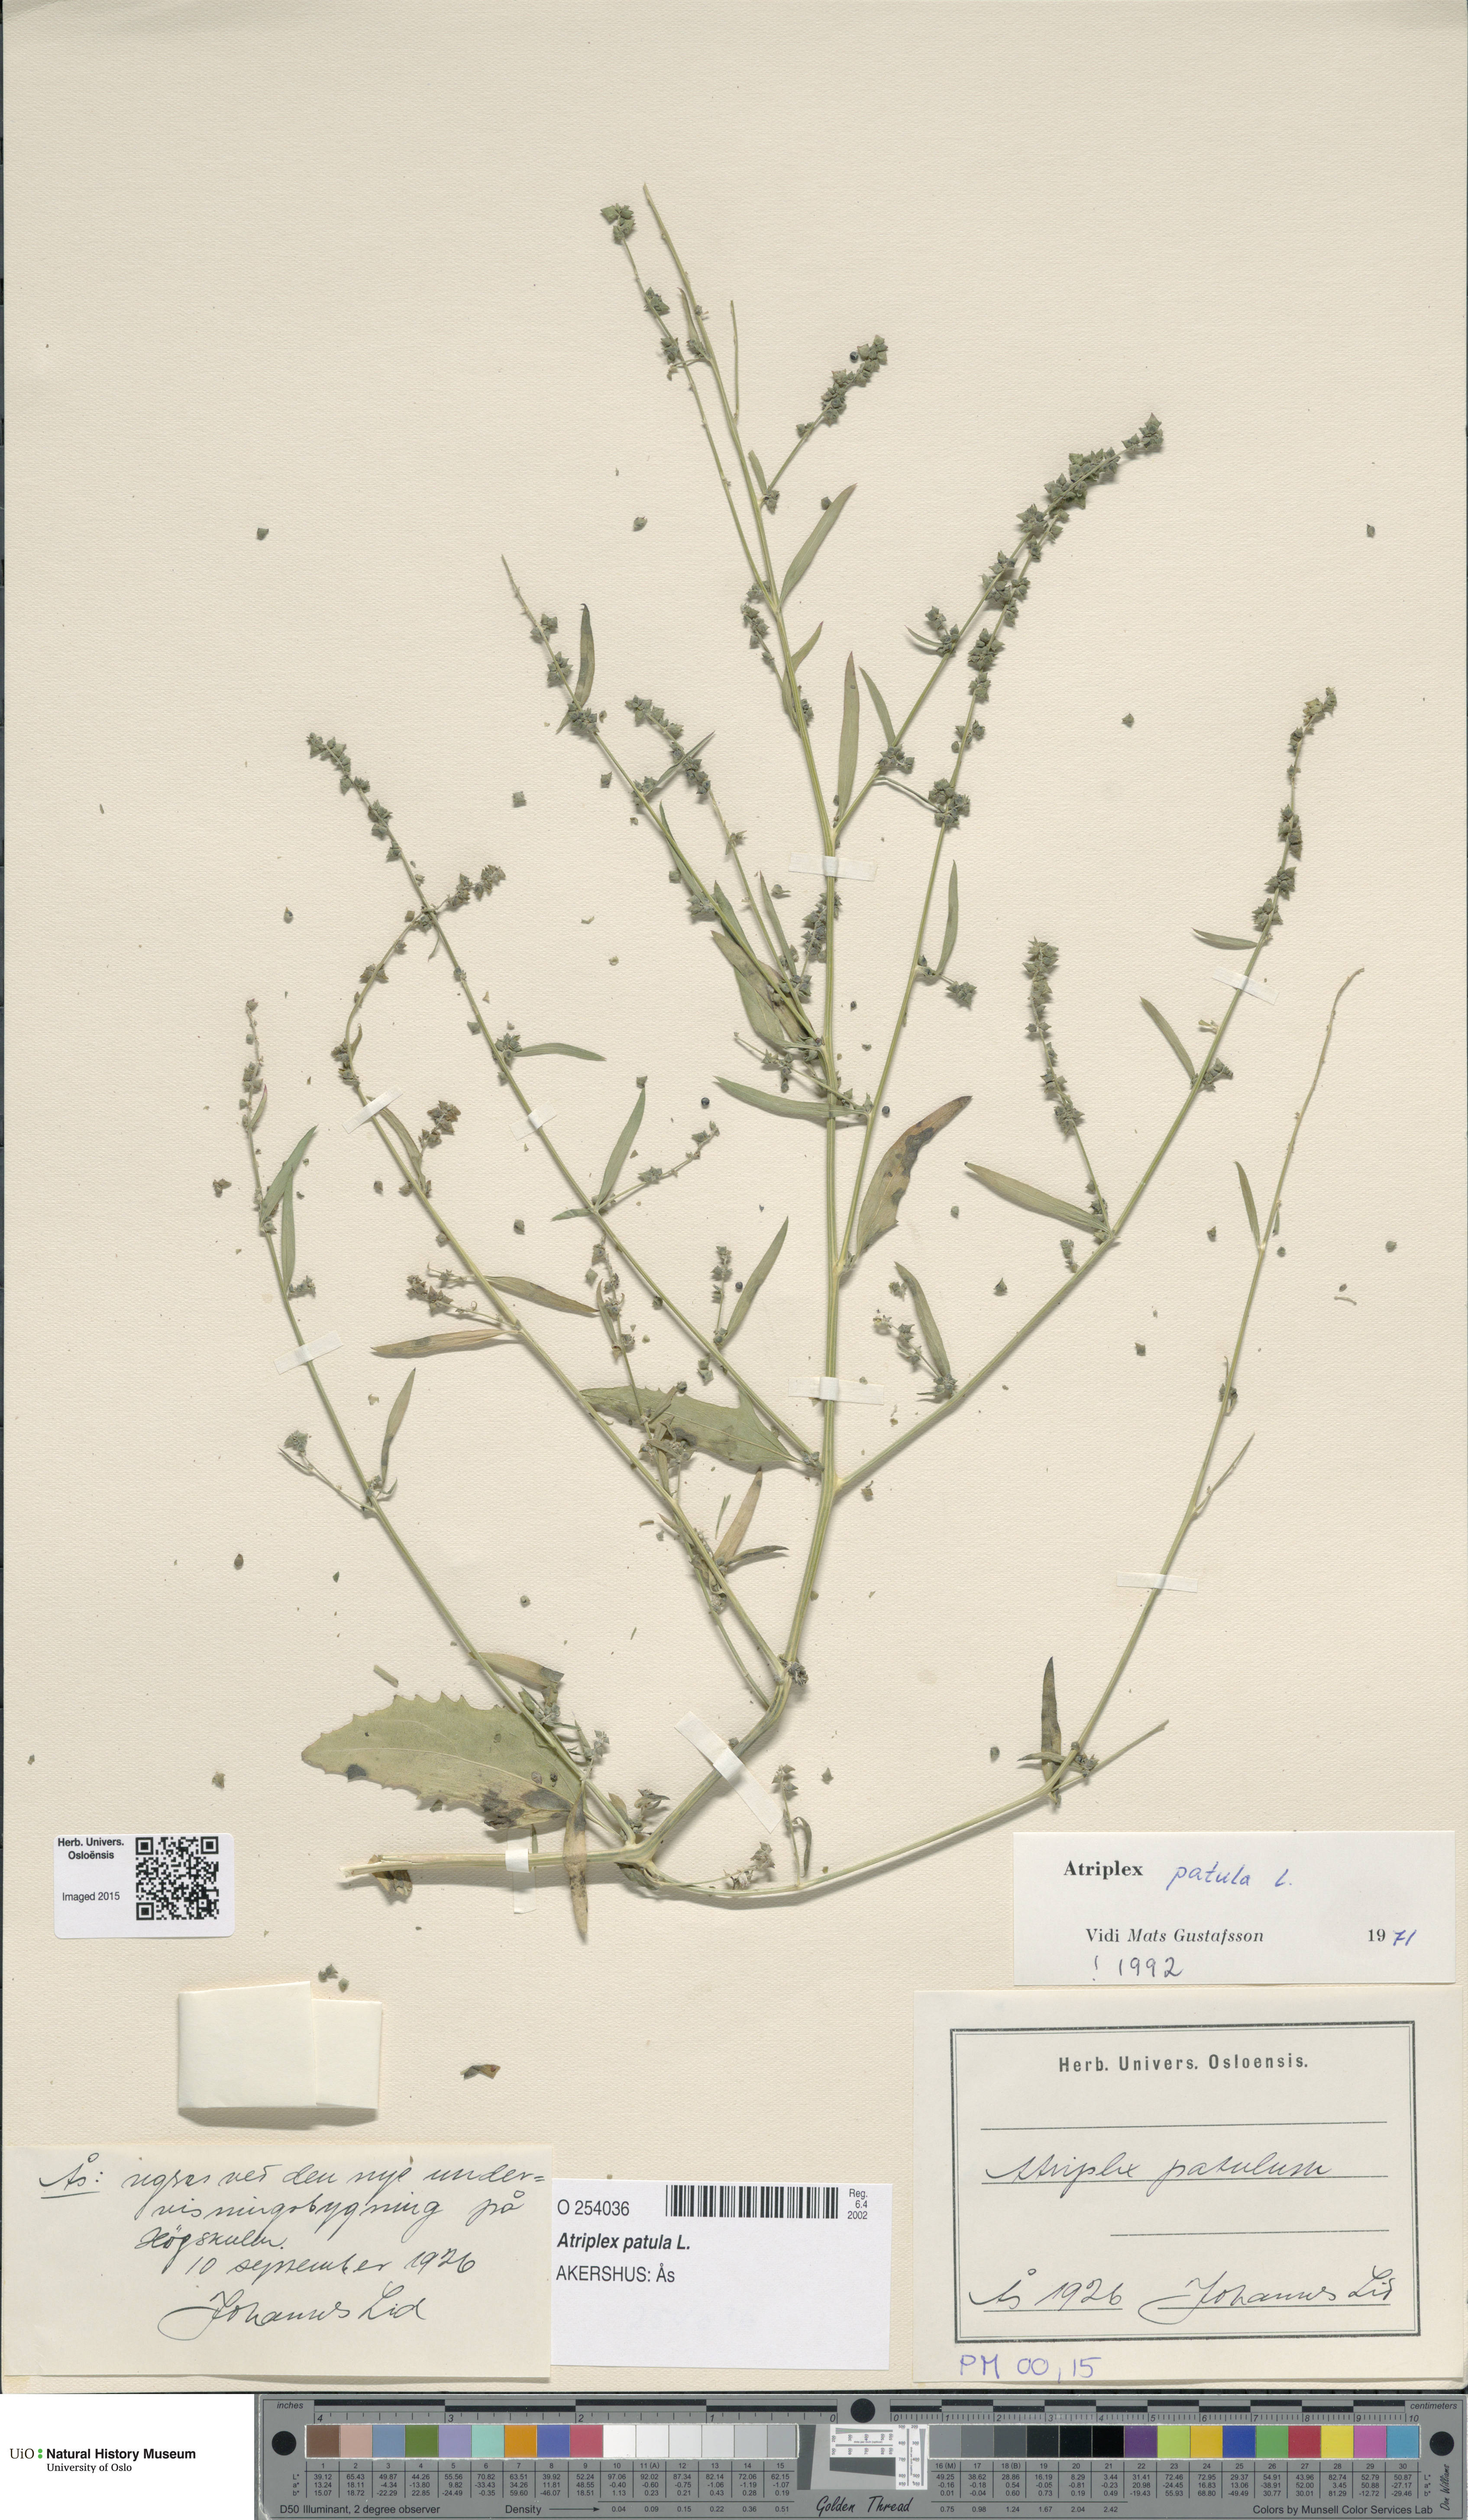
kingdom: Plantae
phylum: Tracheophyta
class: Magnoliopsida
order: Caryophyllales
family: Amaranthaceae
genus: Atriplex
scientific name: Atriplex patula
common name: Common orache
